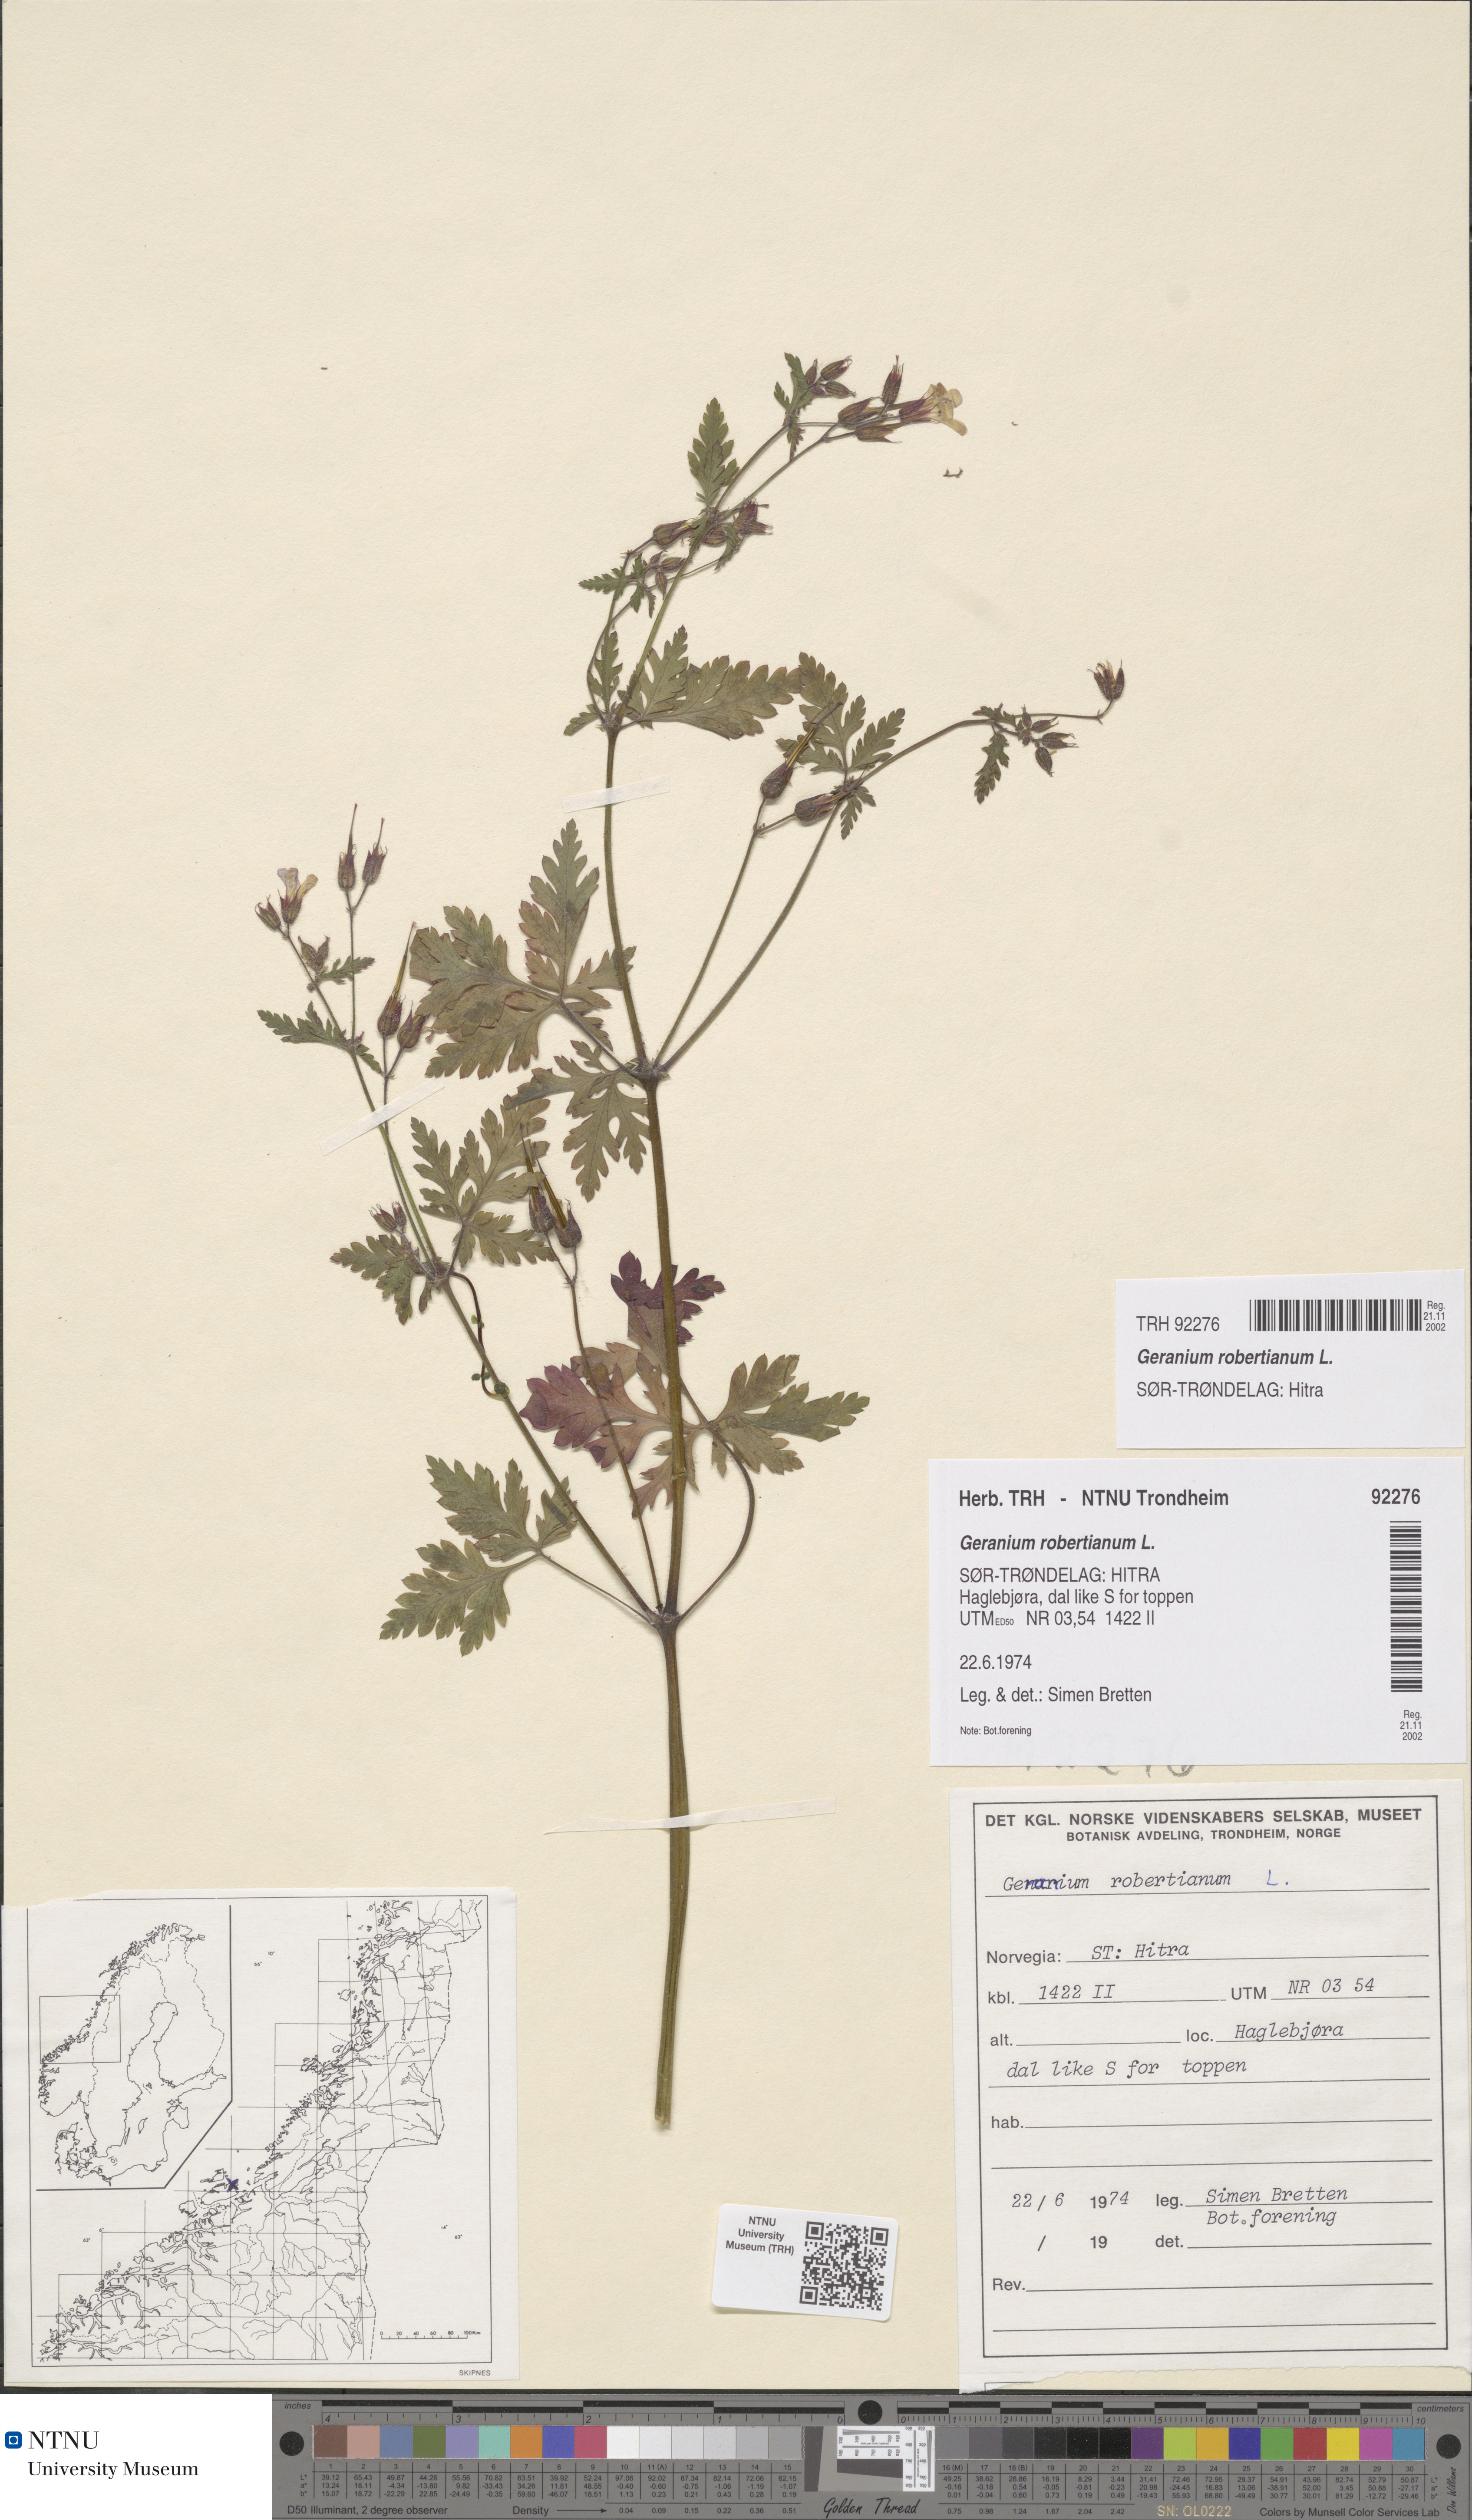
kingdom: Plantae
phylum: Tracheophyta
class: Magnoliopsida
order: Geraniales
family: Geraniaceae
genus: Geranium
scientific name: Geranium robertianum
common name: Herb-robert
